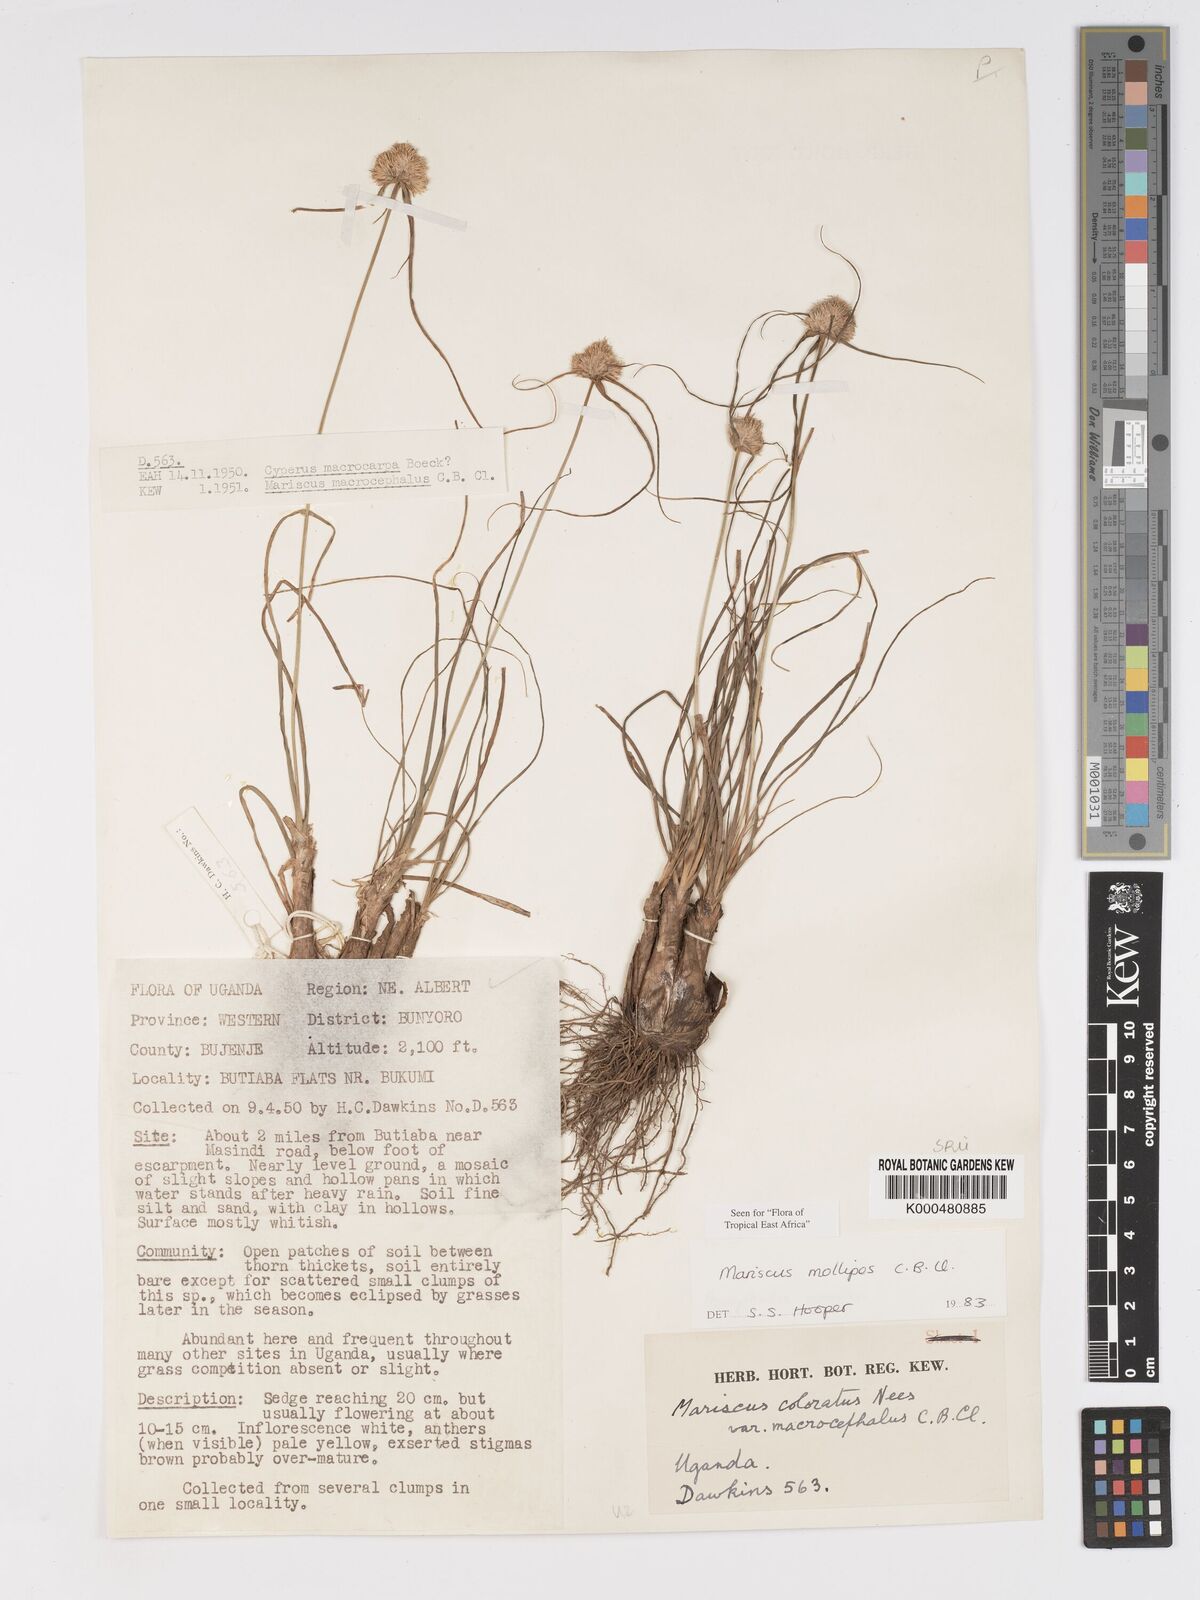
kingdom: Plantae
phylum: Tracheophyta
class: Liliopsida
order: Poales
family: Cyperaceae
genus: Cyperus
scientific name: Cyperus mollipes
